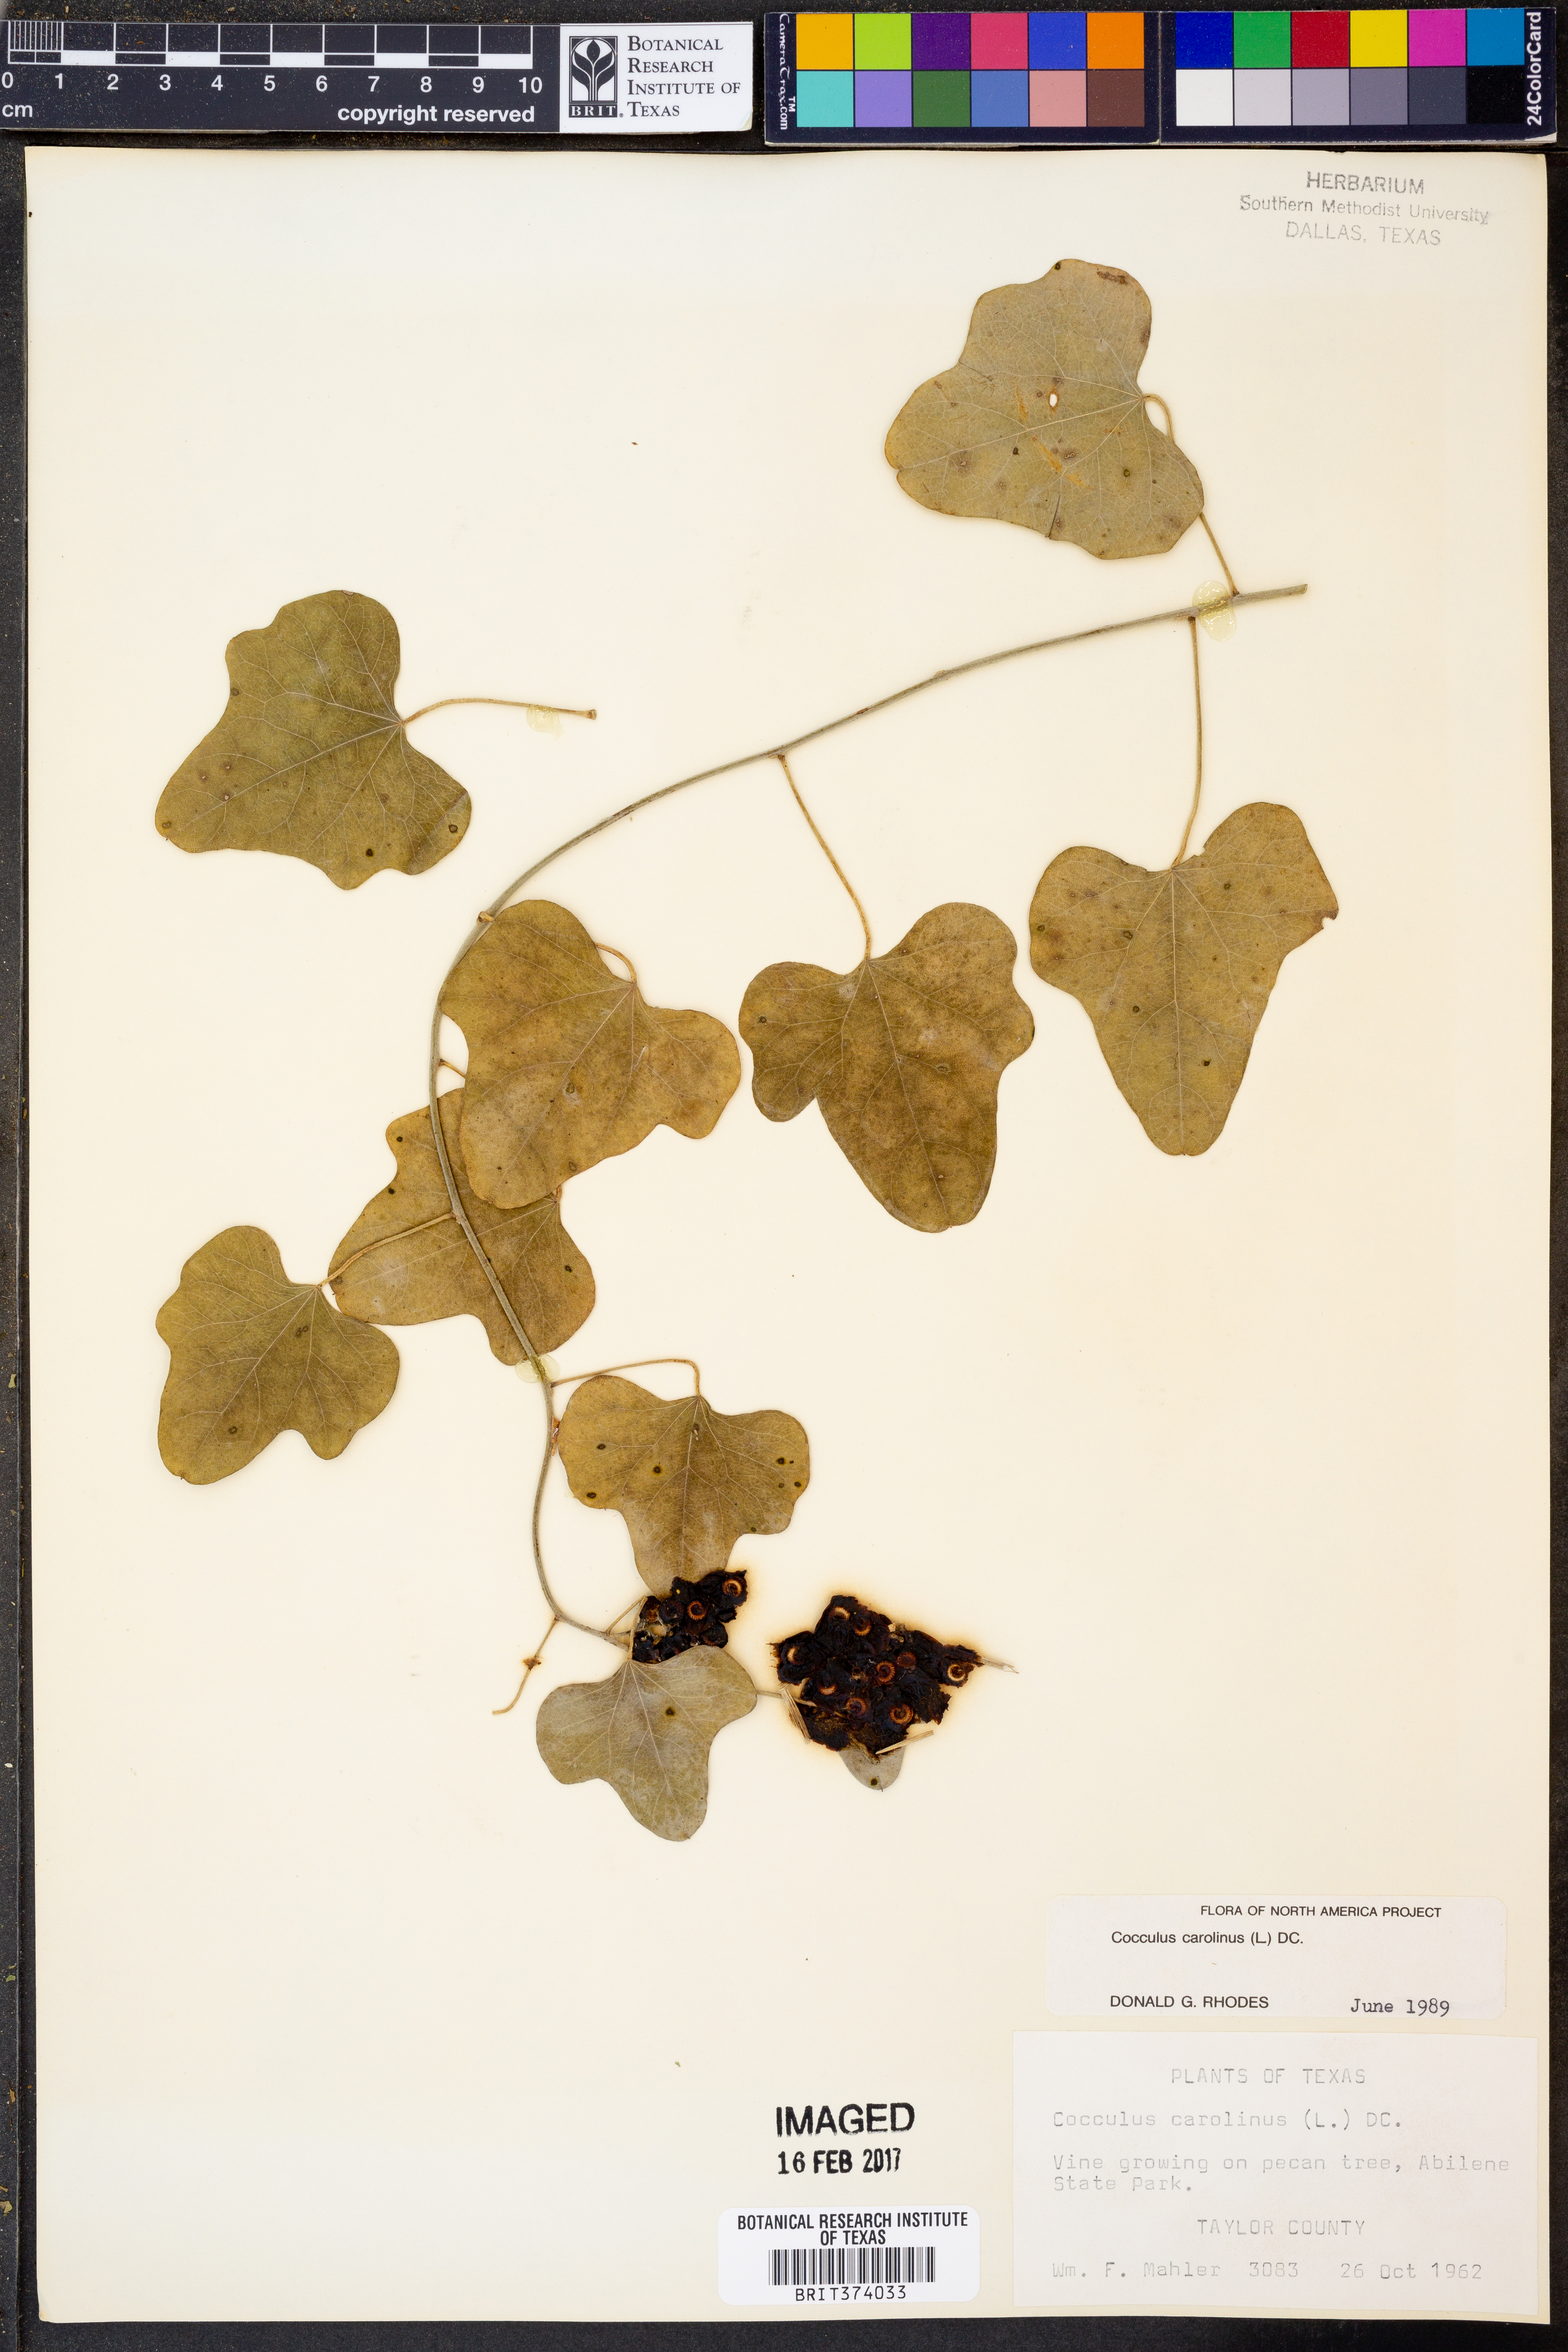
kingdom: Plantae
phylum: Tracheophyta
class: Magnoliopsida
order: Ranunculales
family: Menispermaceae
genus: Cocculus
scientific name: Cocculus carolinus
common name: Carolina moonseed
